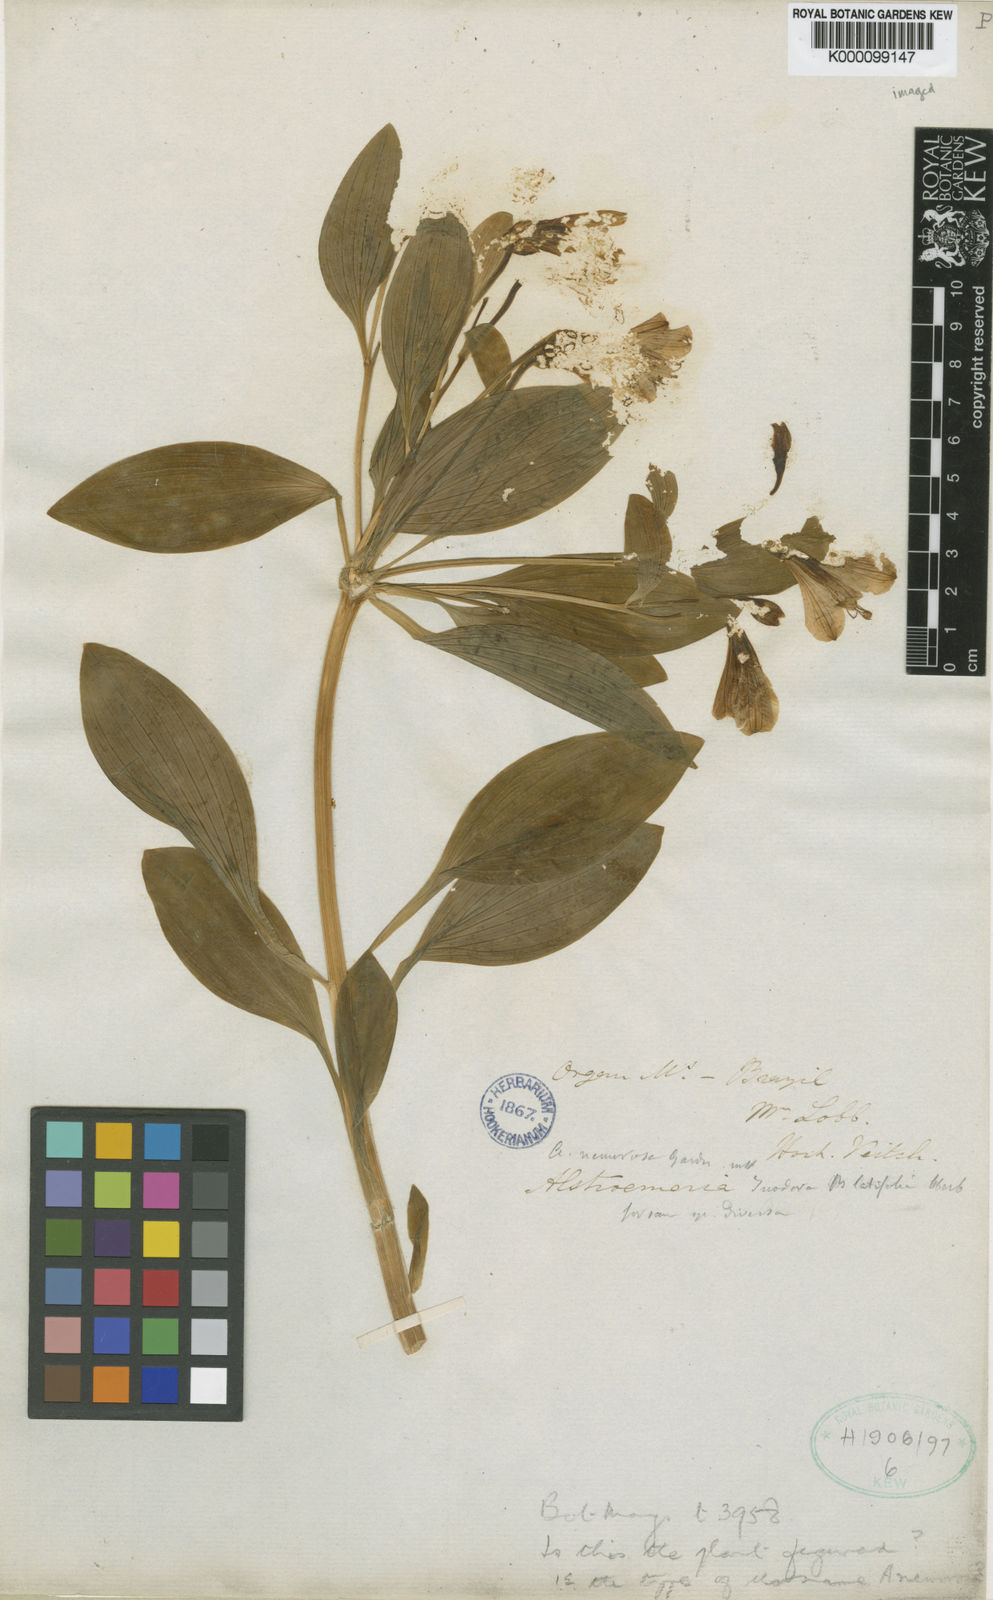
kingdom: Plantae
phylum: Tracheophyta
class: Liliopsida
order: Liliales
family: Alstroemeriaceae
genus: Alstroemeria
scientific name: Alstroemeria cunha
